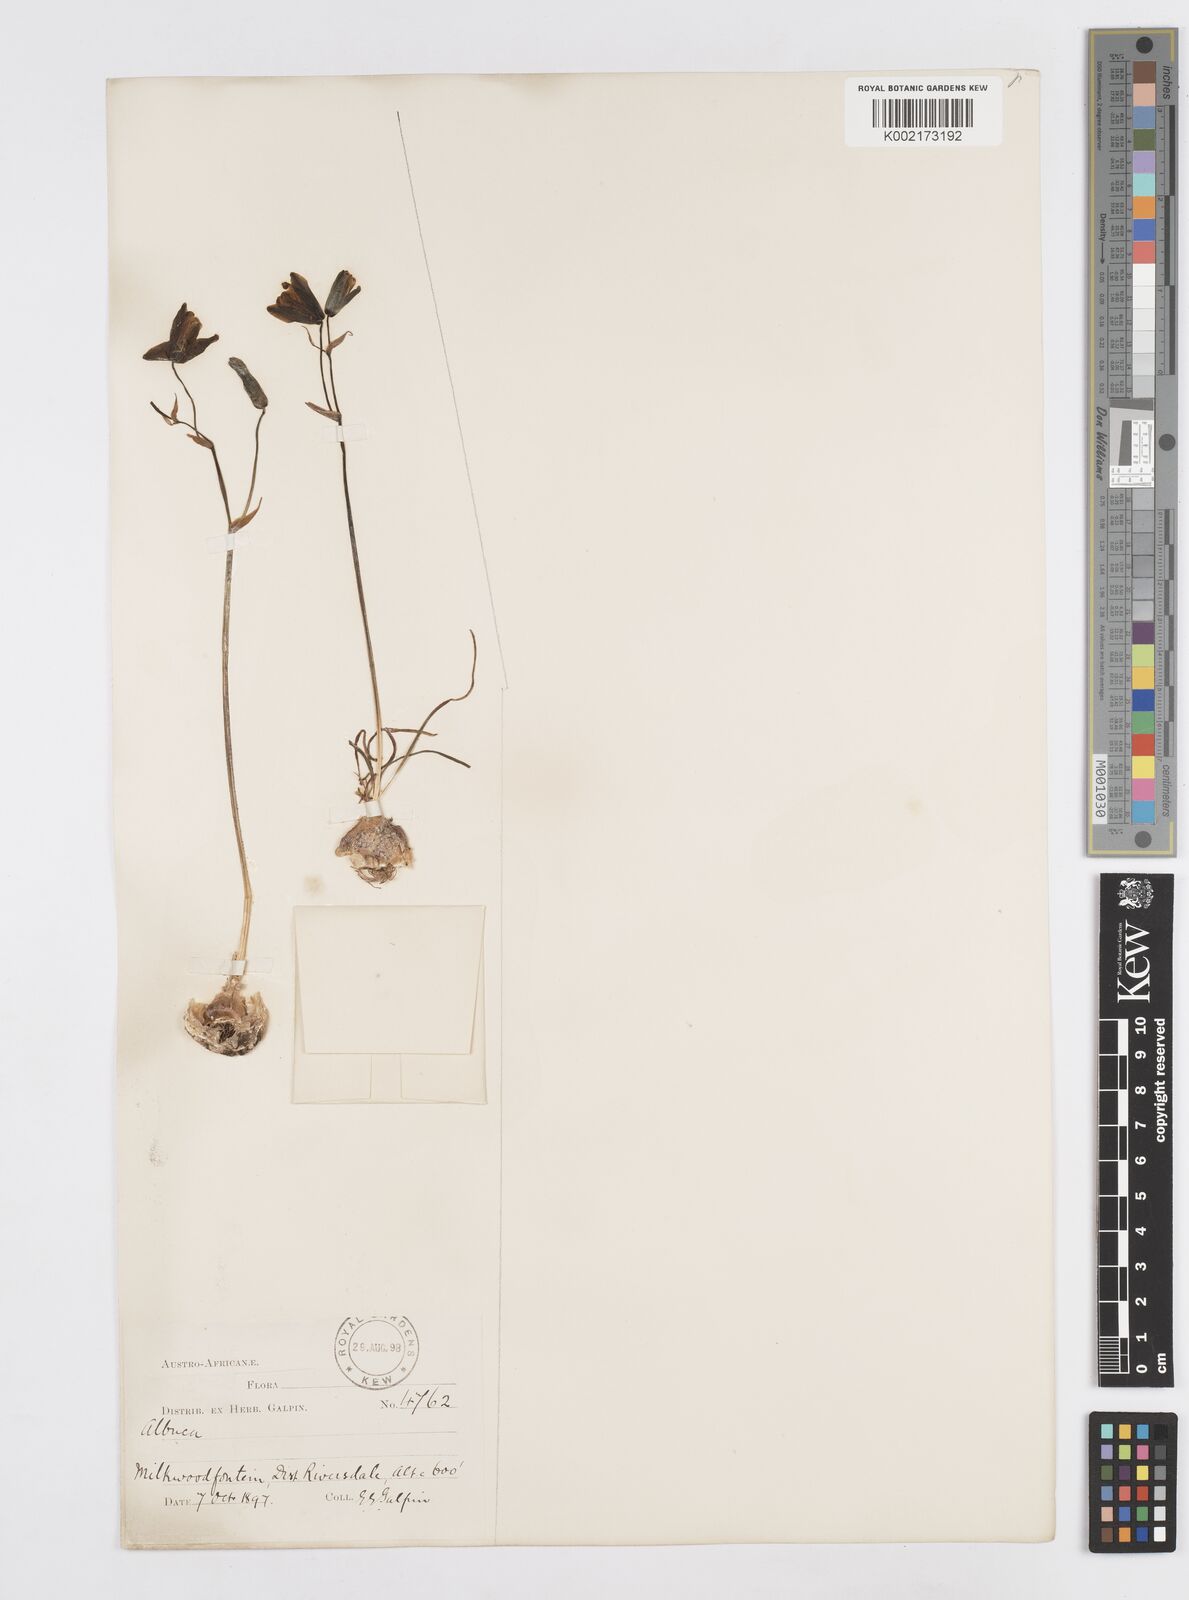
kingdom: Plantae
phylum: Tracheophyta
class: Liliopsida
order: Asparagales
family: Asparagaceae
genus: Albuca
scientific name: Albuca
